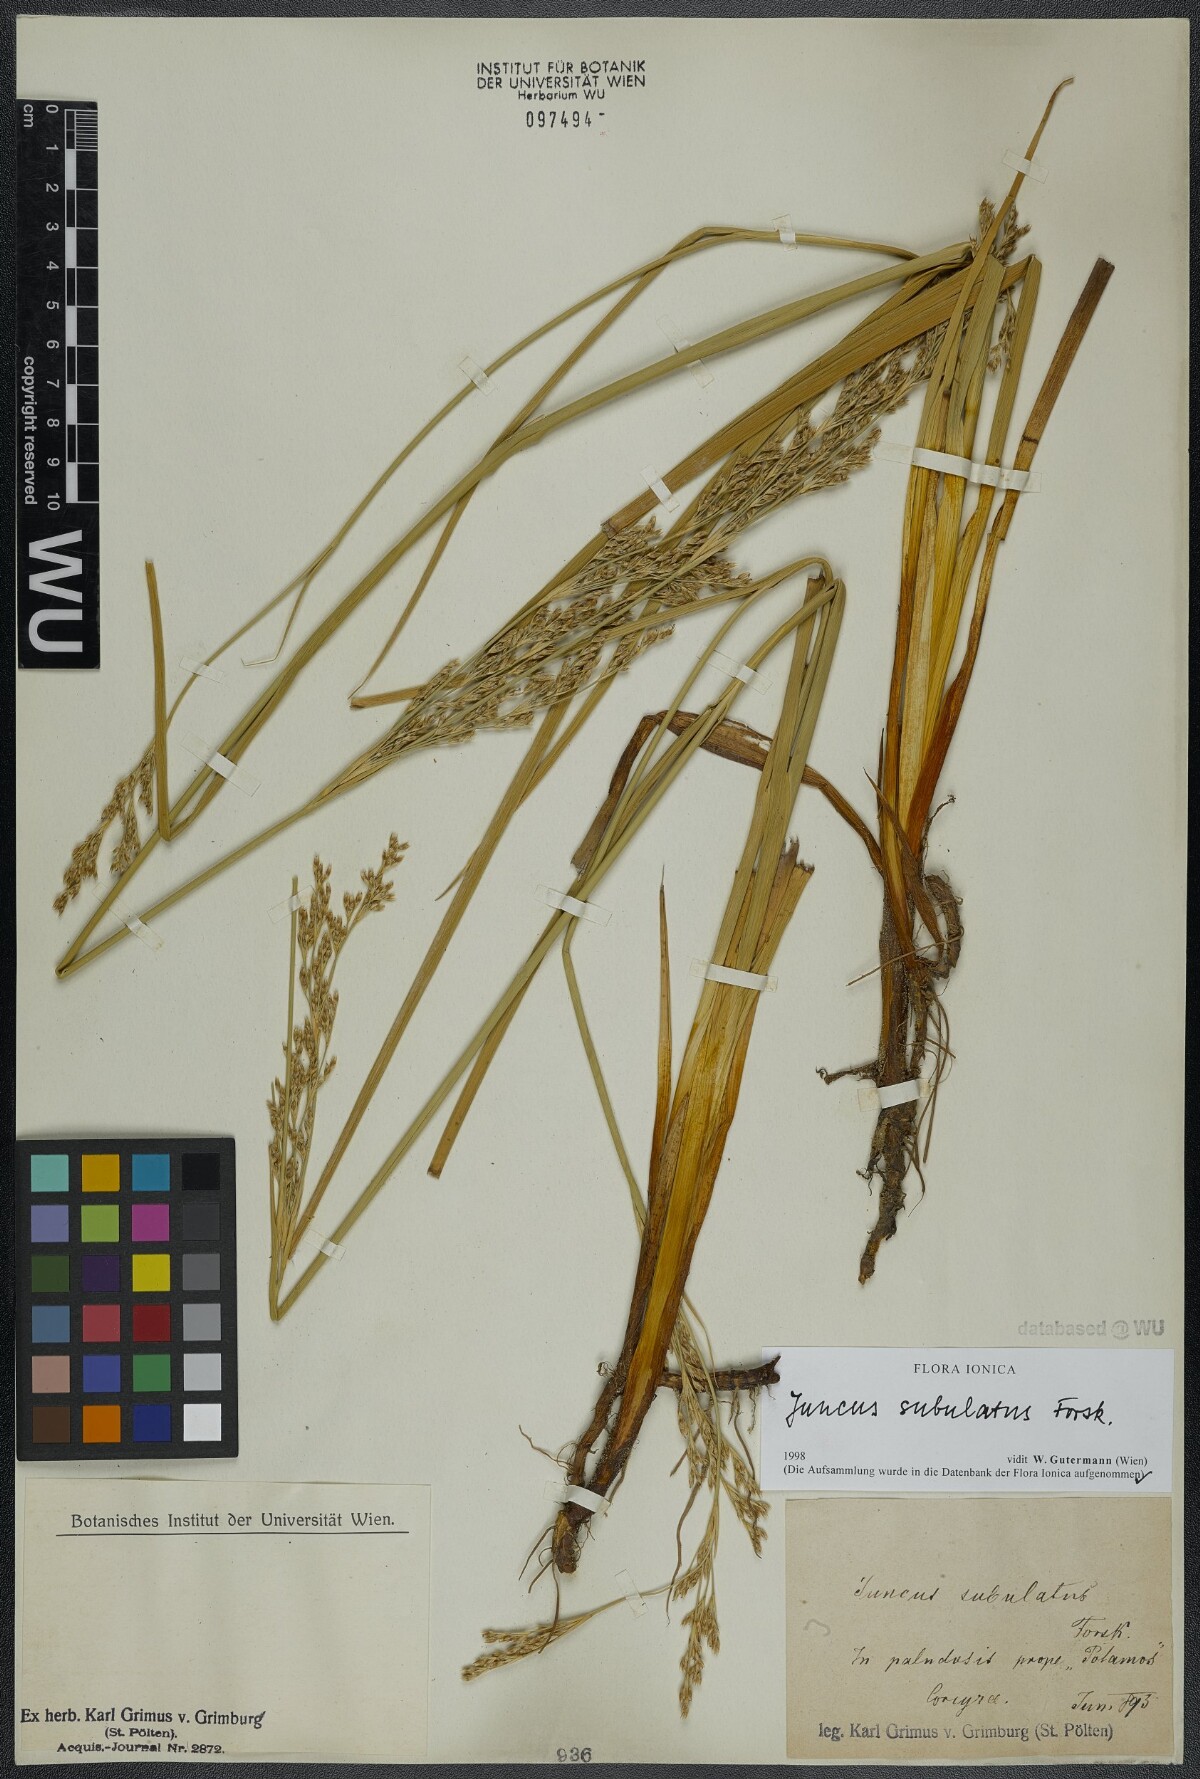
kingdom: Plantae
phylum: Tracheophyta
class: Liliopsida
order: Poales
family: Juncaceae
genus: Juncus
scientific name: Juncus subulatus
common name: Somerset rush
